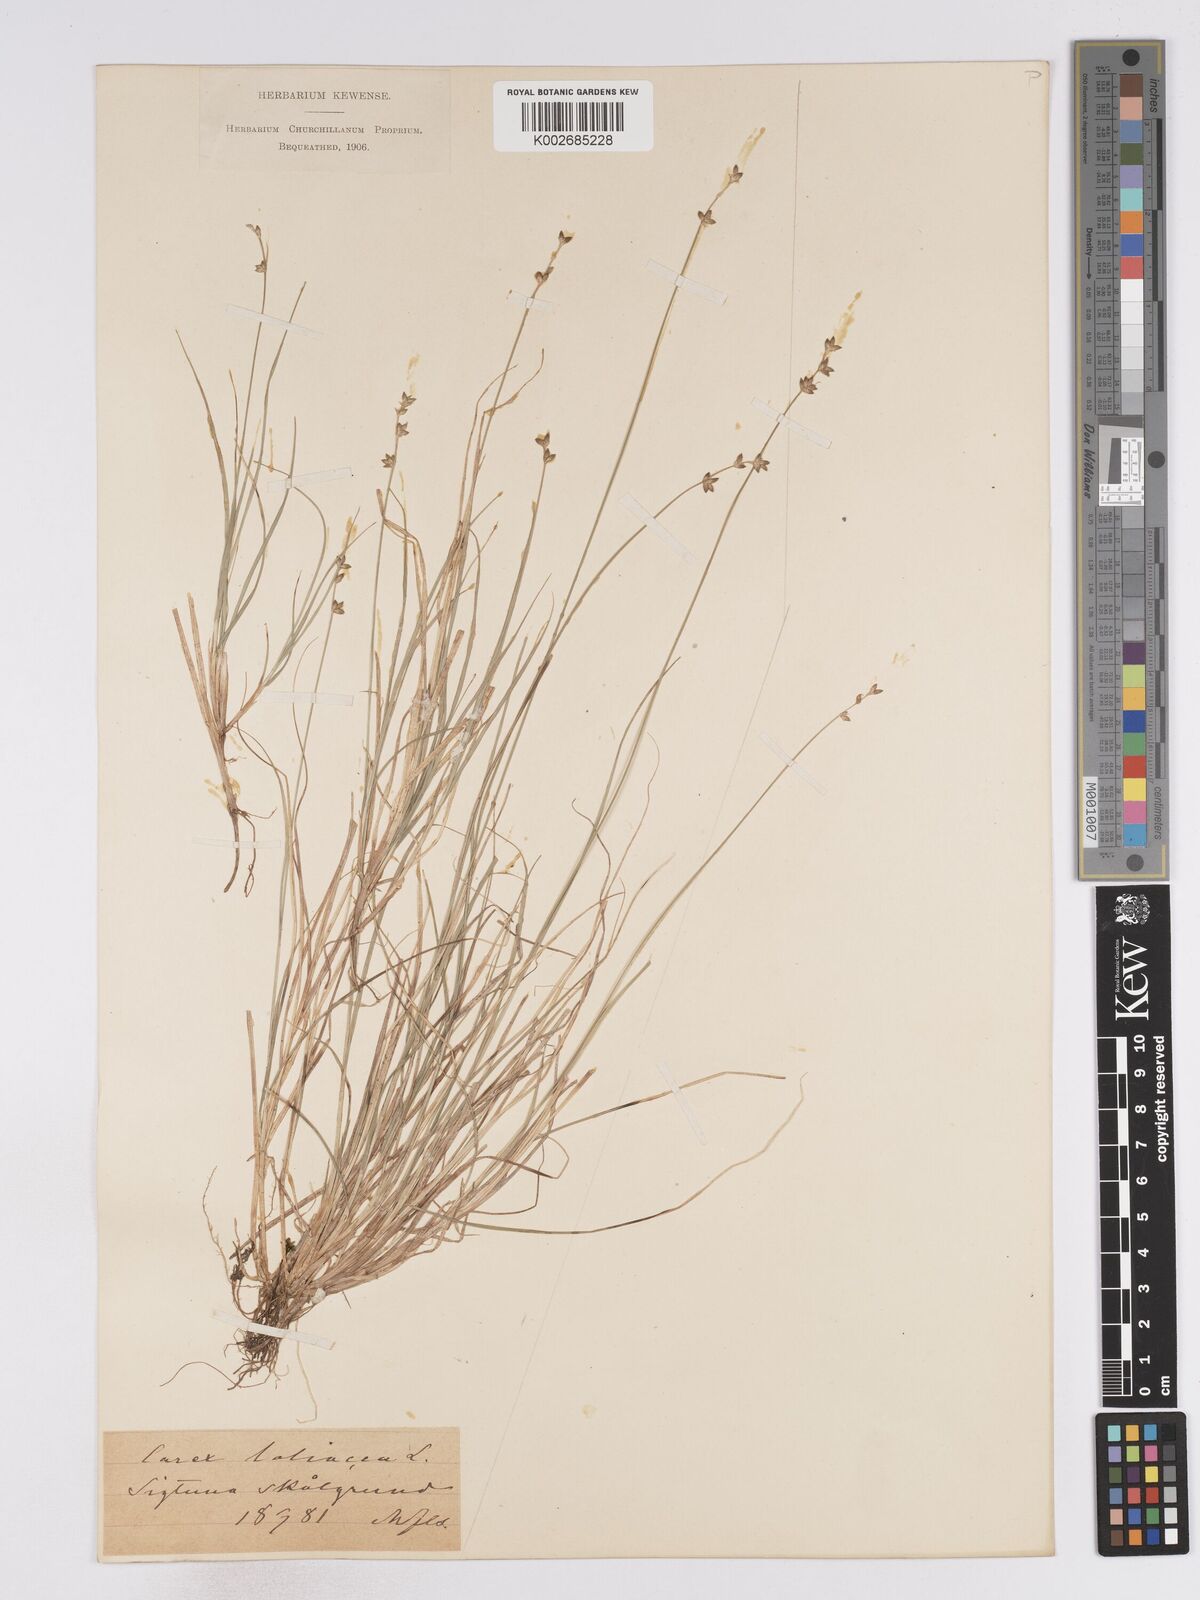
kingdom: Plantae
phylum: Tracheophyta
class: Liliopsida
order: Poales
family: Cyperaceae
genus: Carex
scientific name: Carex loliacea
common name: Ryegrass sedge
